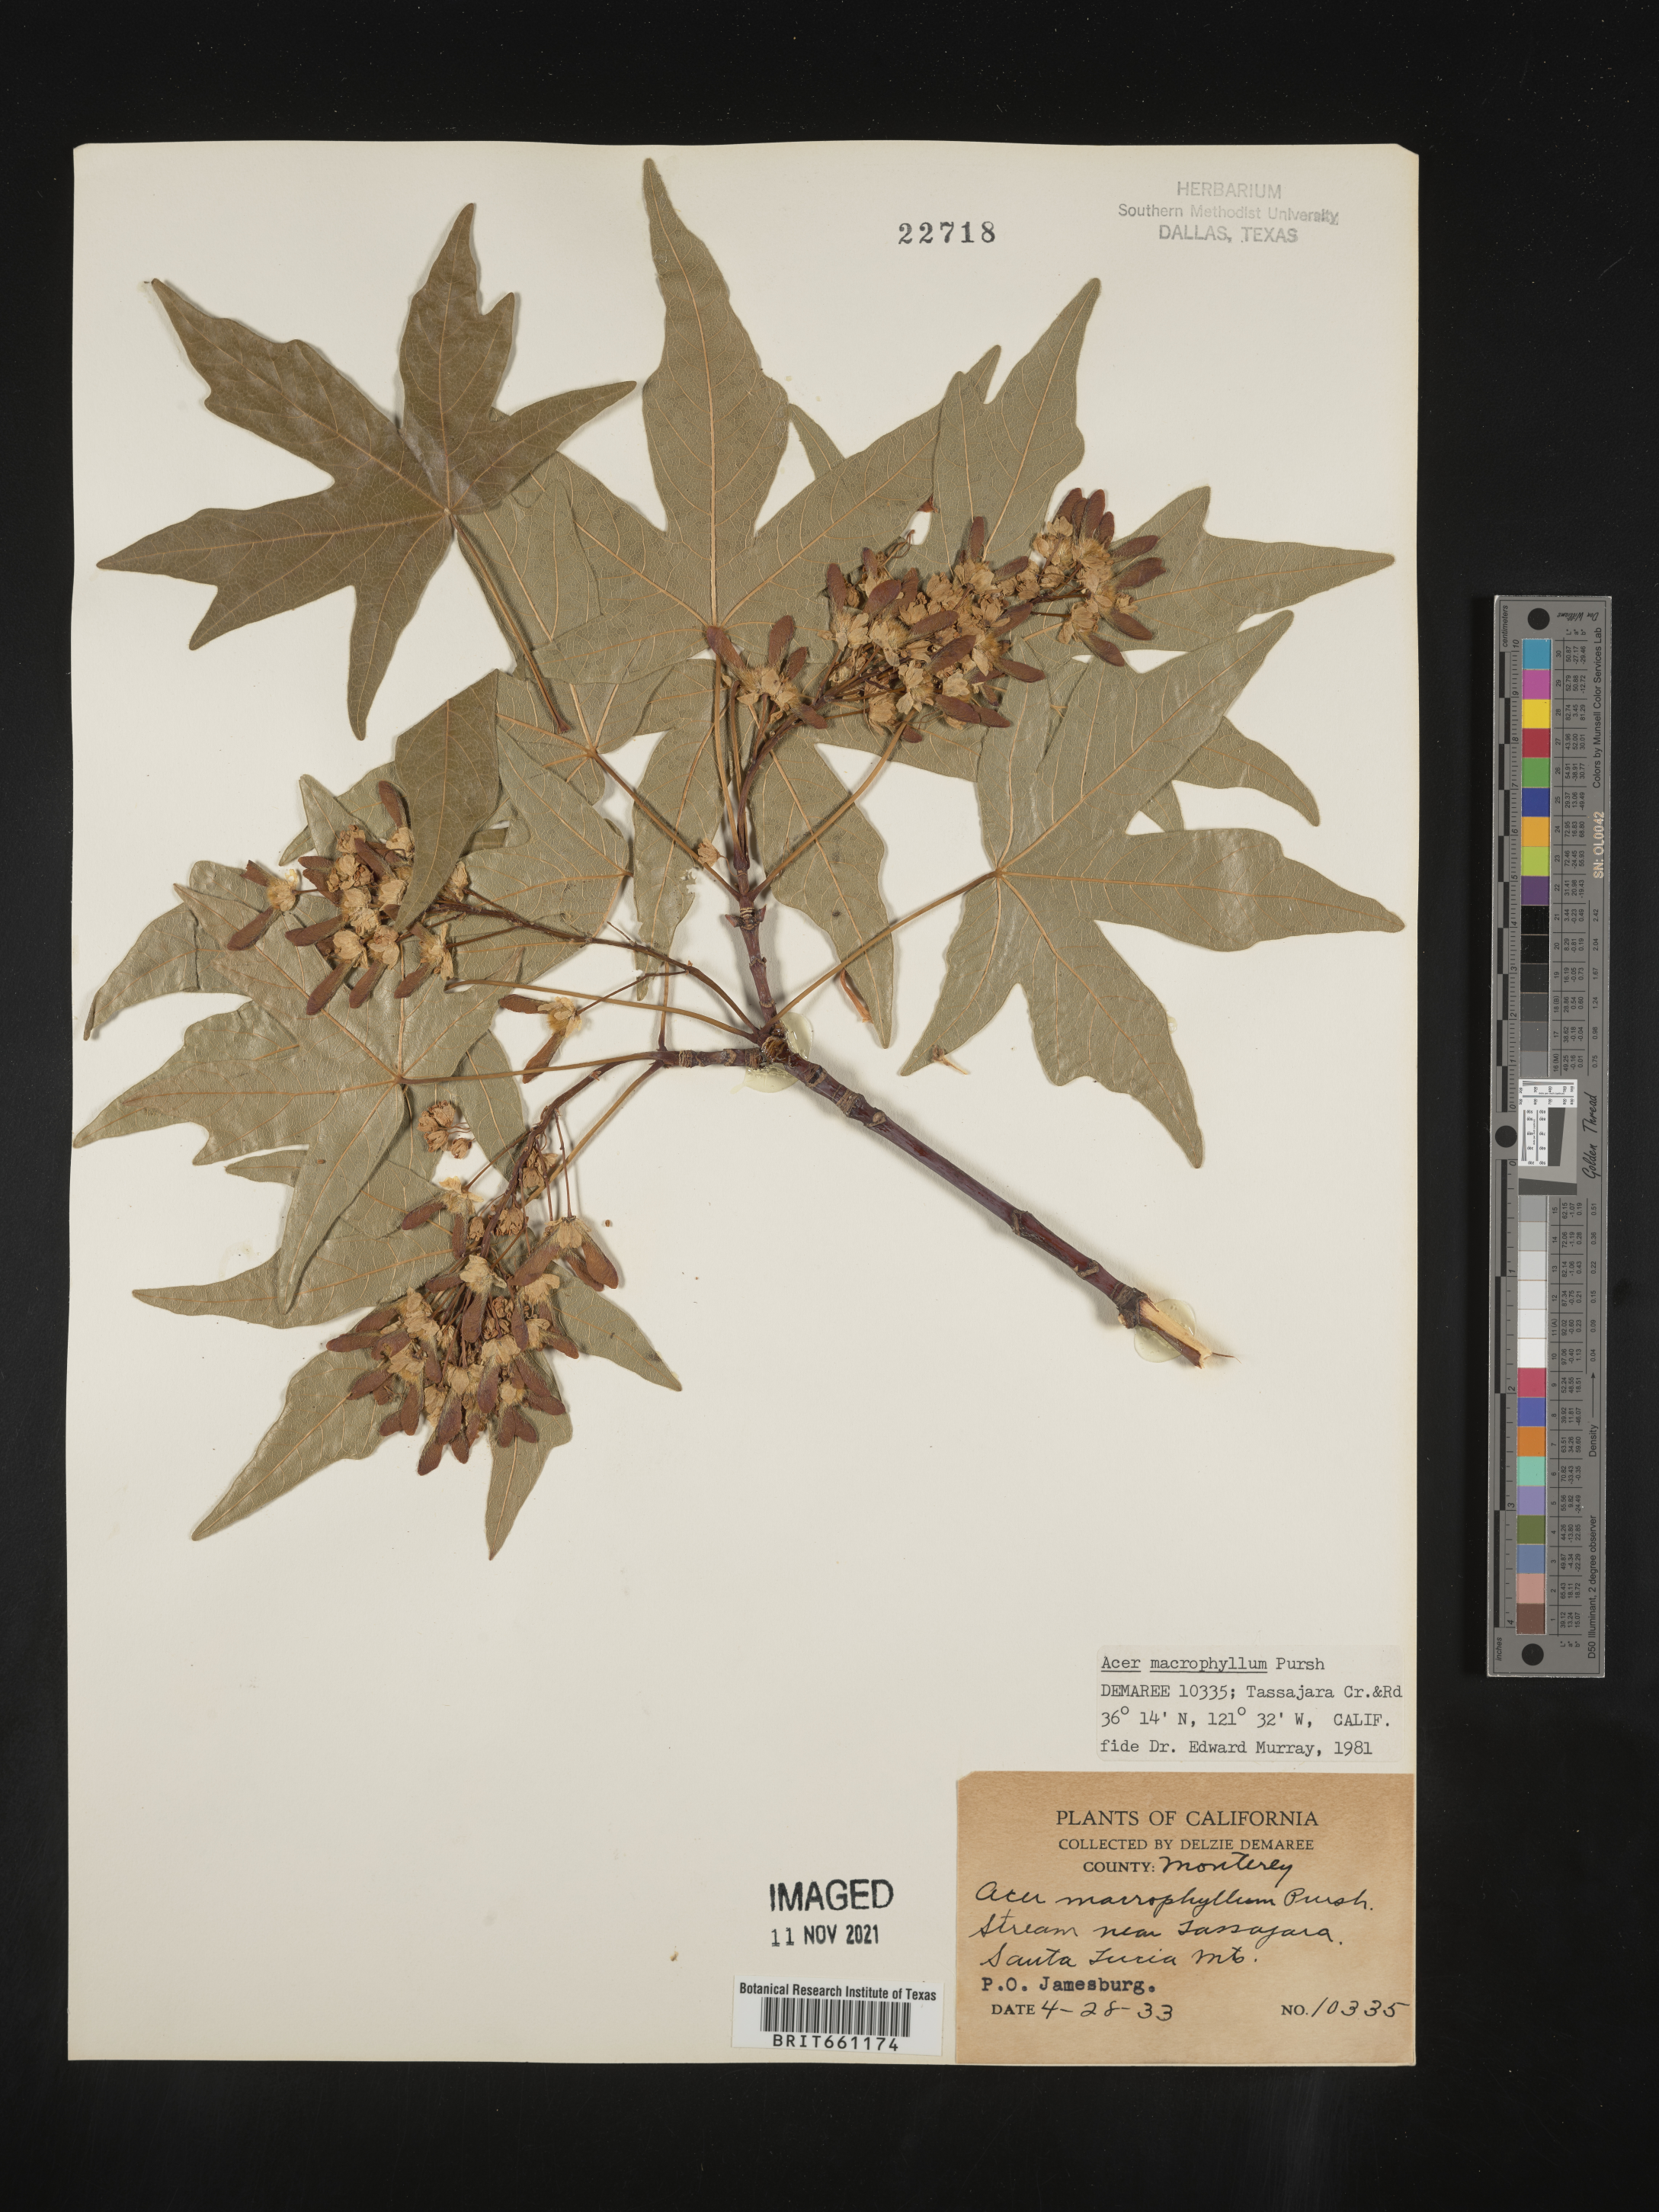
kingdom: Plantae
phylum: Tracheophyta
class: Magnoliopsida
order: Sapindales
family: Sapindaceae
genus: Acer
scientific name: Acer macrophyllum
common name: Oregon maple
